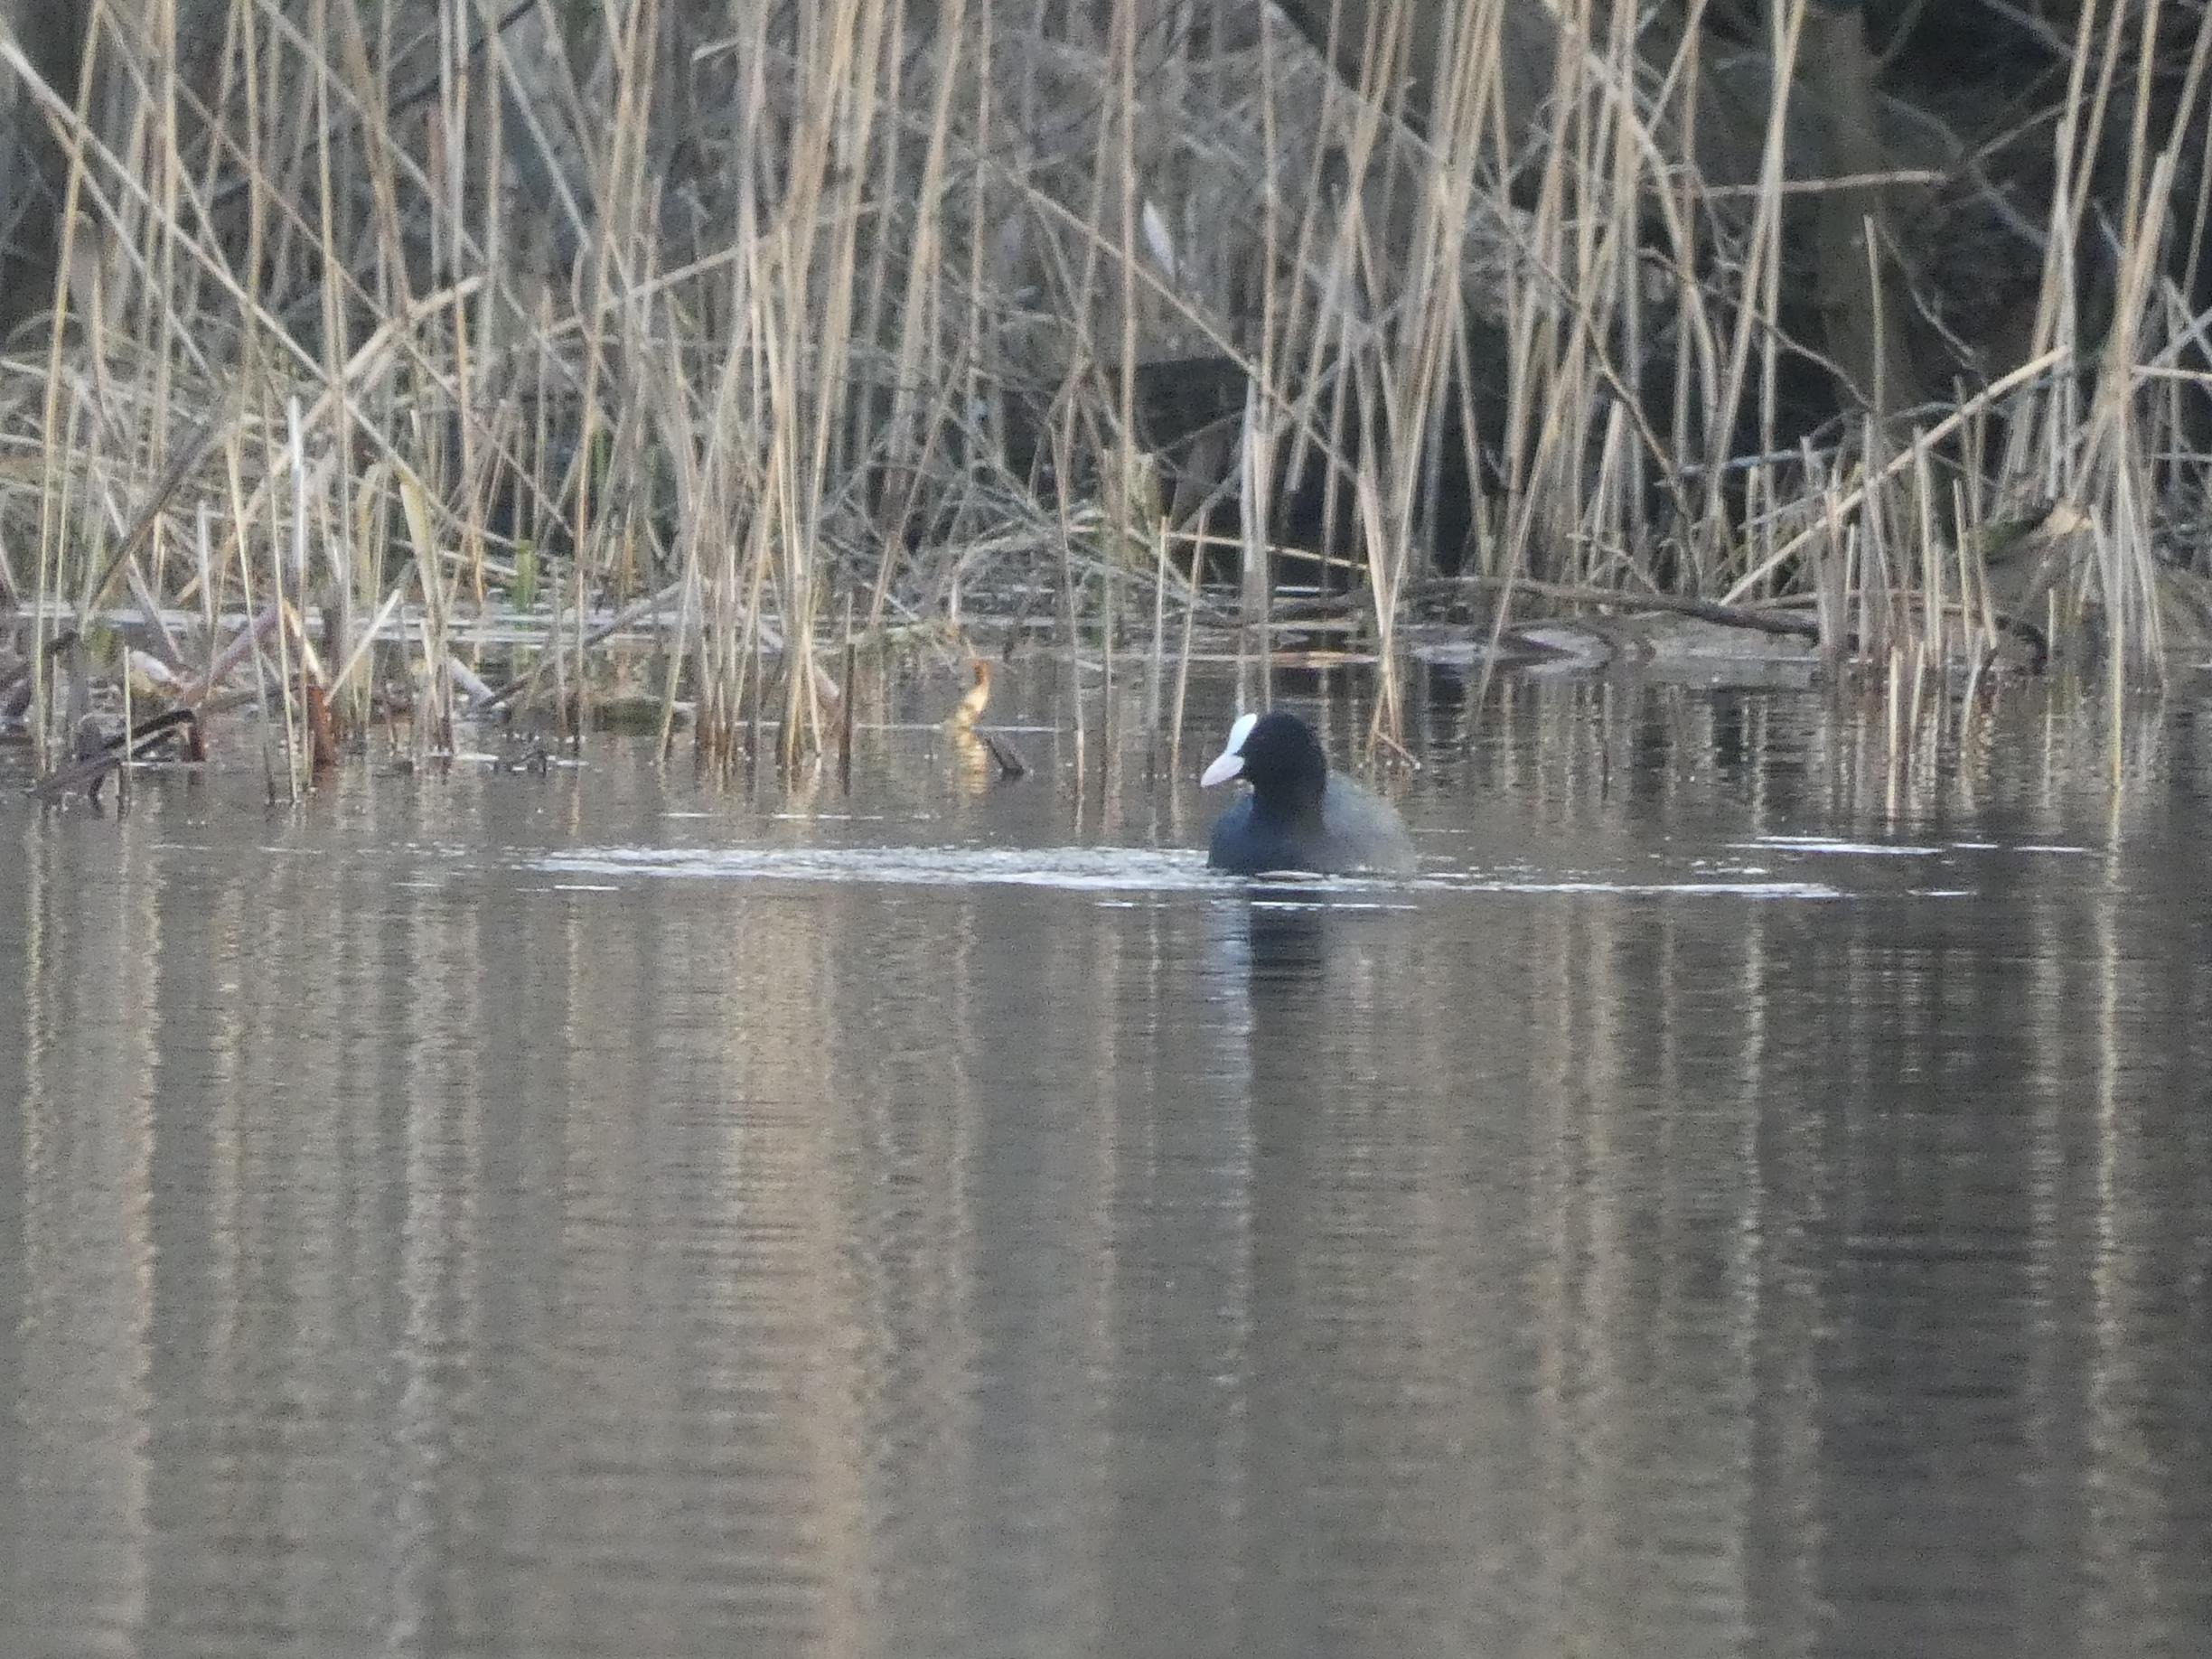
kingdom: Animalia
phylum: Chordata
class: Aves
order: Gruiformes
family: Rallidae
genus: Fulica
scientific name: Fulica atra
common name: Blishøne
